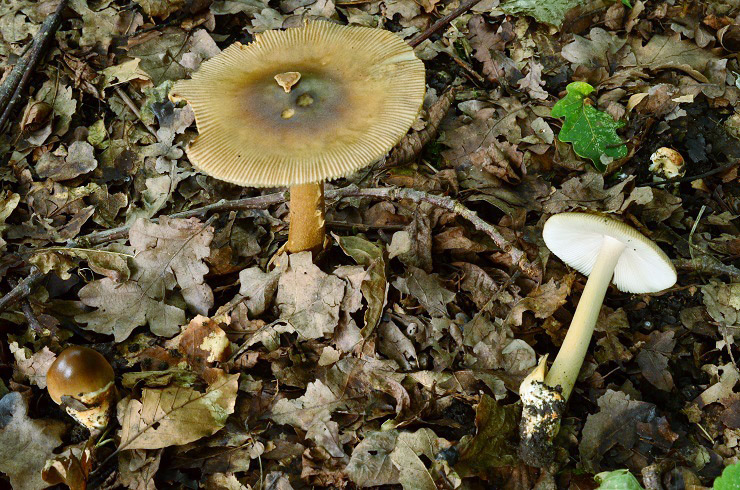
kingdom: Fungi
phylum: Basidiomycota
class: Agaricomycetes
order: Agaricales
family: Amanitaceae
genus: Amanita
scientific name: Amanita fulvoides
